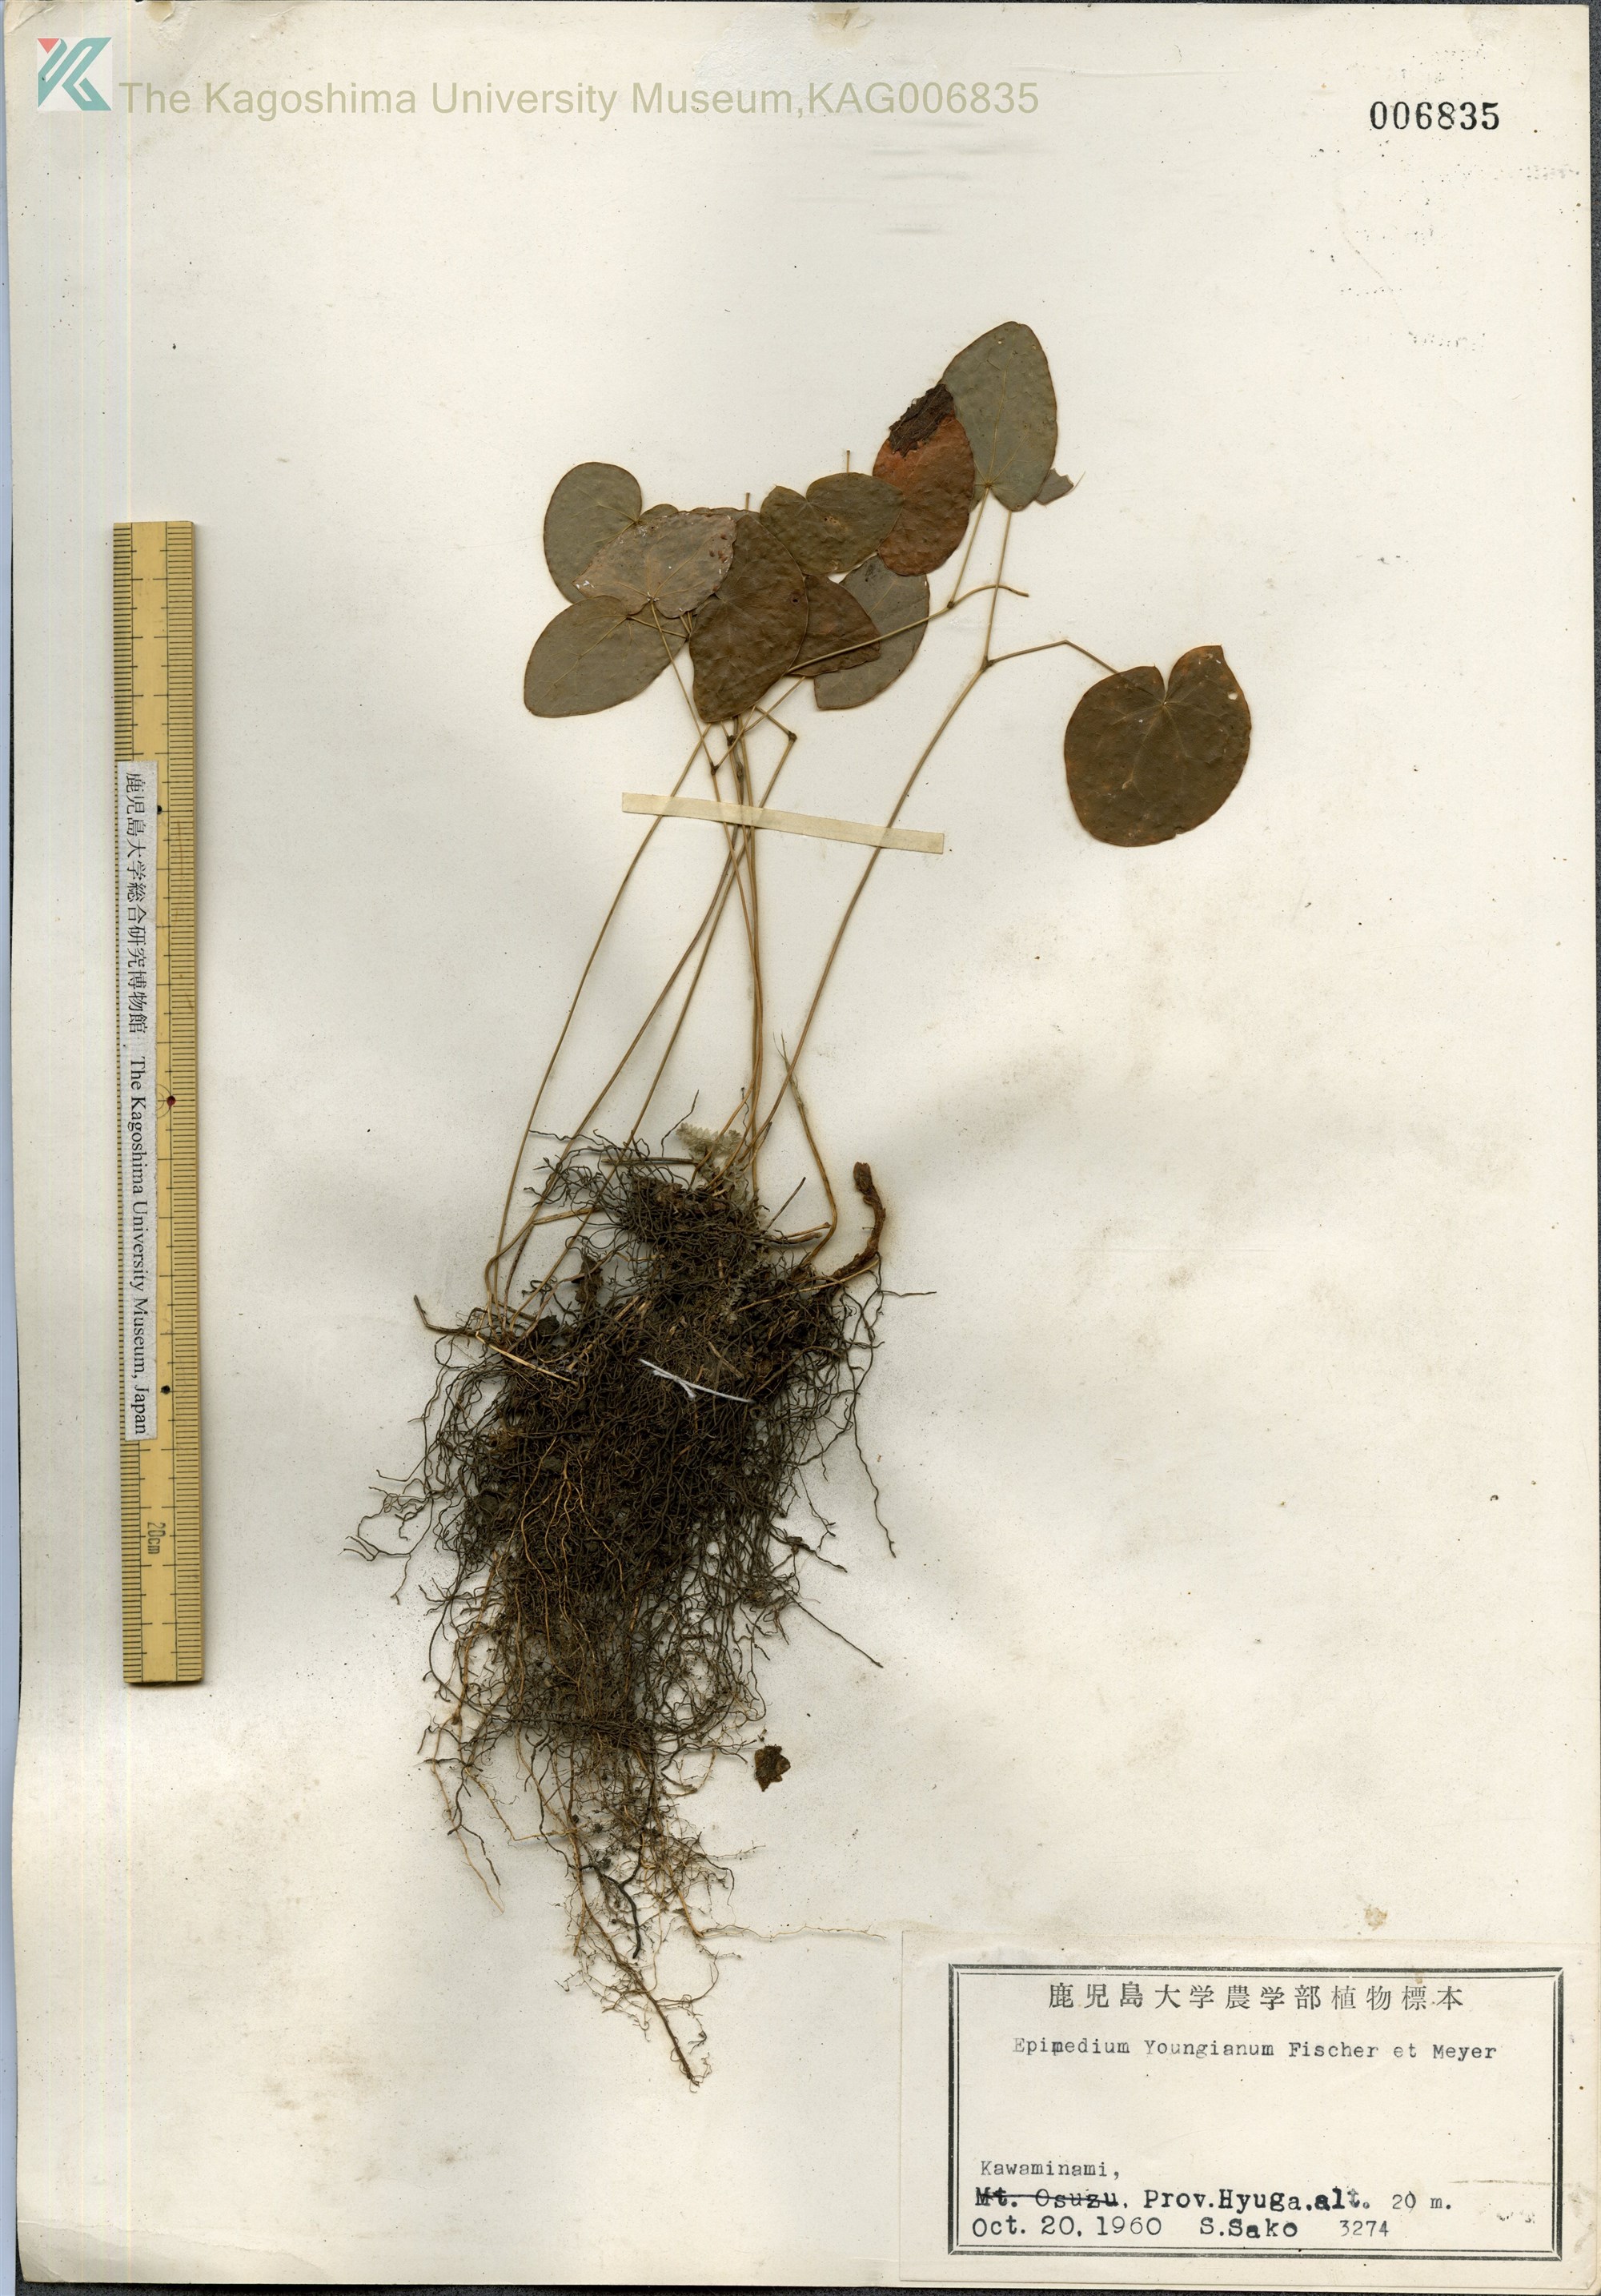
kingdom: Plantae
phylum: Tracheophyta
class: Magnoliopsida
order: Ranunculales
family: Berberidaceae
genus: Epimedium
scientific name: Epimedium youngianum
